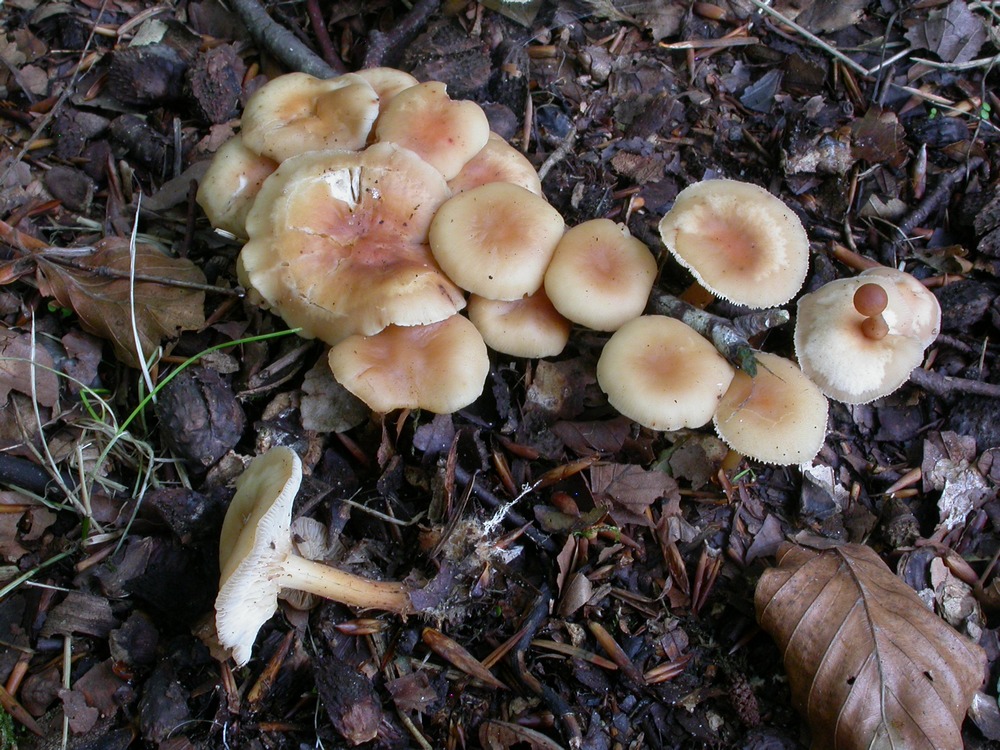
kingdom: Fungi
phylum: Basidiomycota
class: Agaricomycetes
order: Agaricales
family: Omphalotaceae
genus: Gymnopus
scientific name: Gymnopus dryophilus
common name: løv-fladhat
